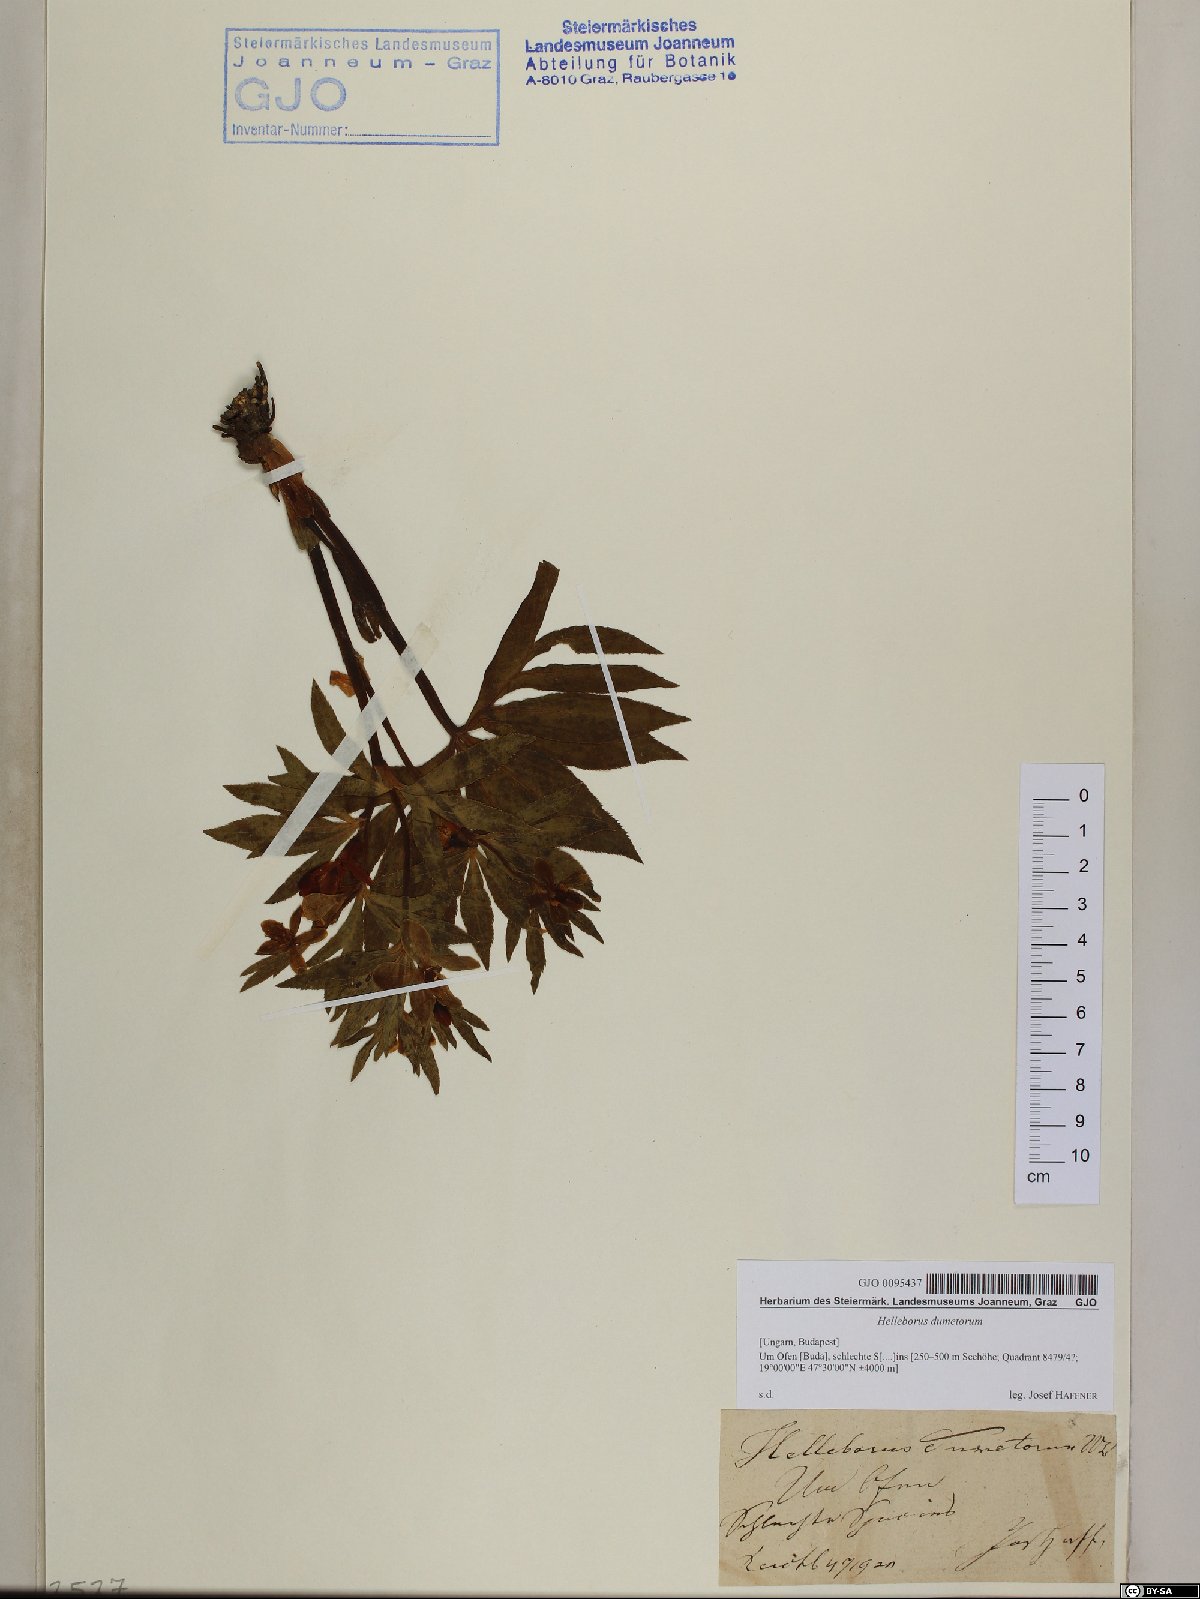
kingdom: Plantae
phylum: Tracheophyta
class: Magnoliopsida
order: Ranunculales
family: Ranunculaceae
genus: Helleborus
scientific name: Helleborus dumetorum
